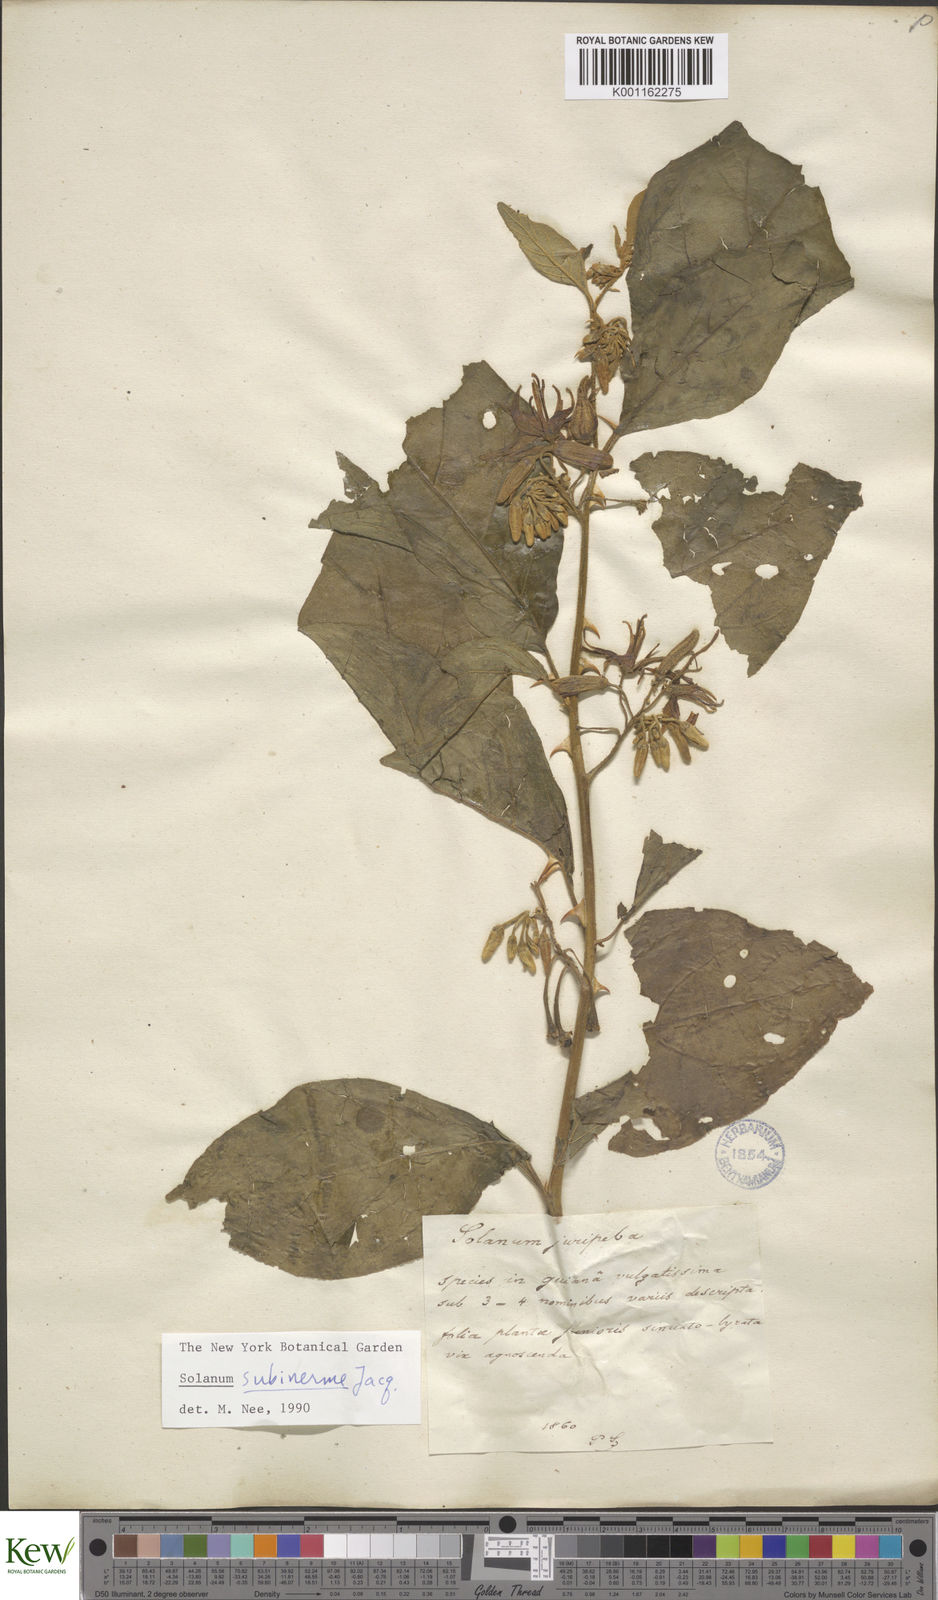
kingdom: Plantae
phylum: Tracheophyta
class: Magnoliopsida
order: Solanales
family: Solanaceae
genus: Solanum
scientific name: Solanum subinerme
